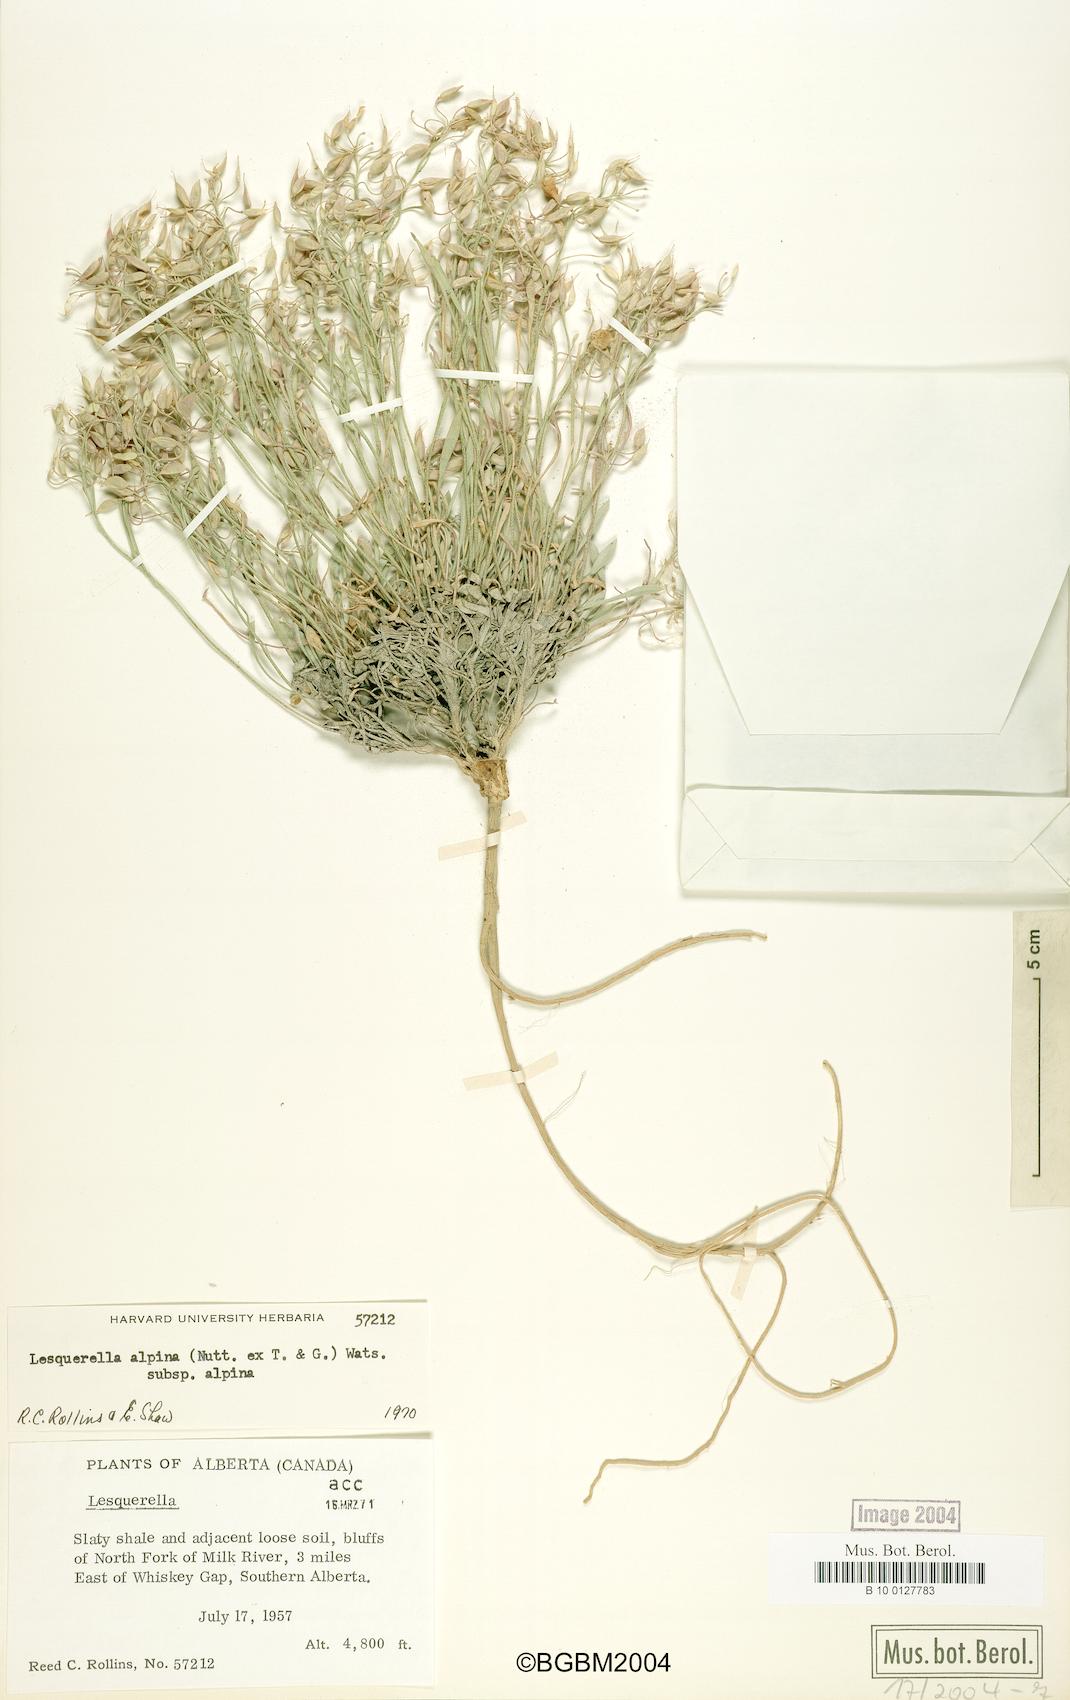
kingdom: Plantae
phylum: Tracheophyta
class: Magnoliopsida
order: Brassicales
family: Brassicaceae
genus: Physaria
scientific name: Physaria reediana
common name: Rollins's bladderpod
